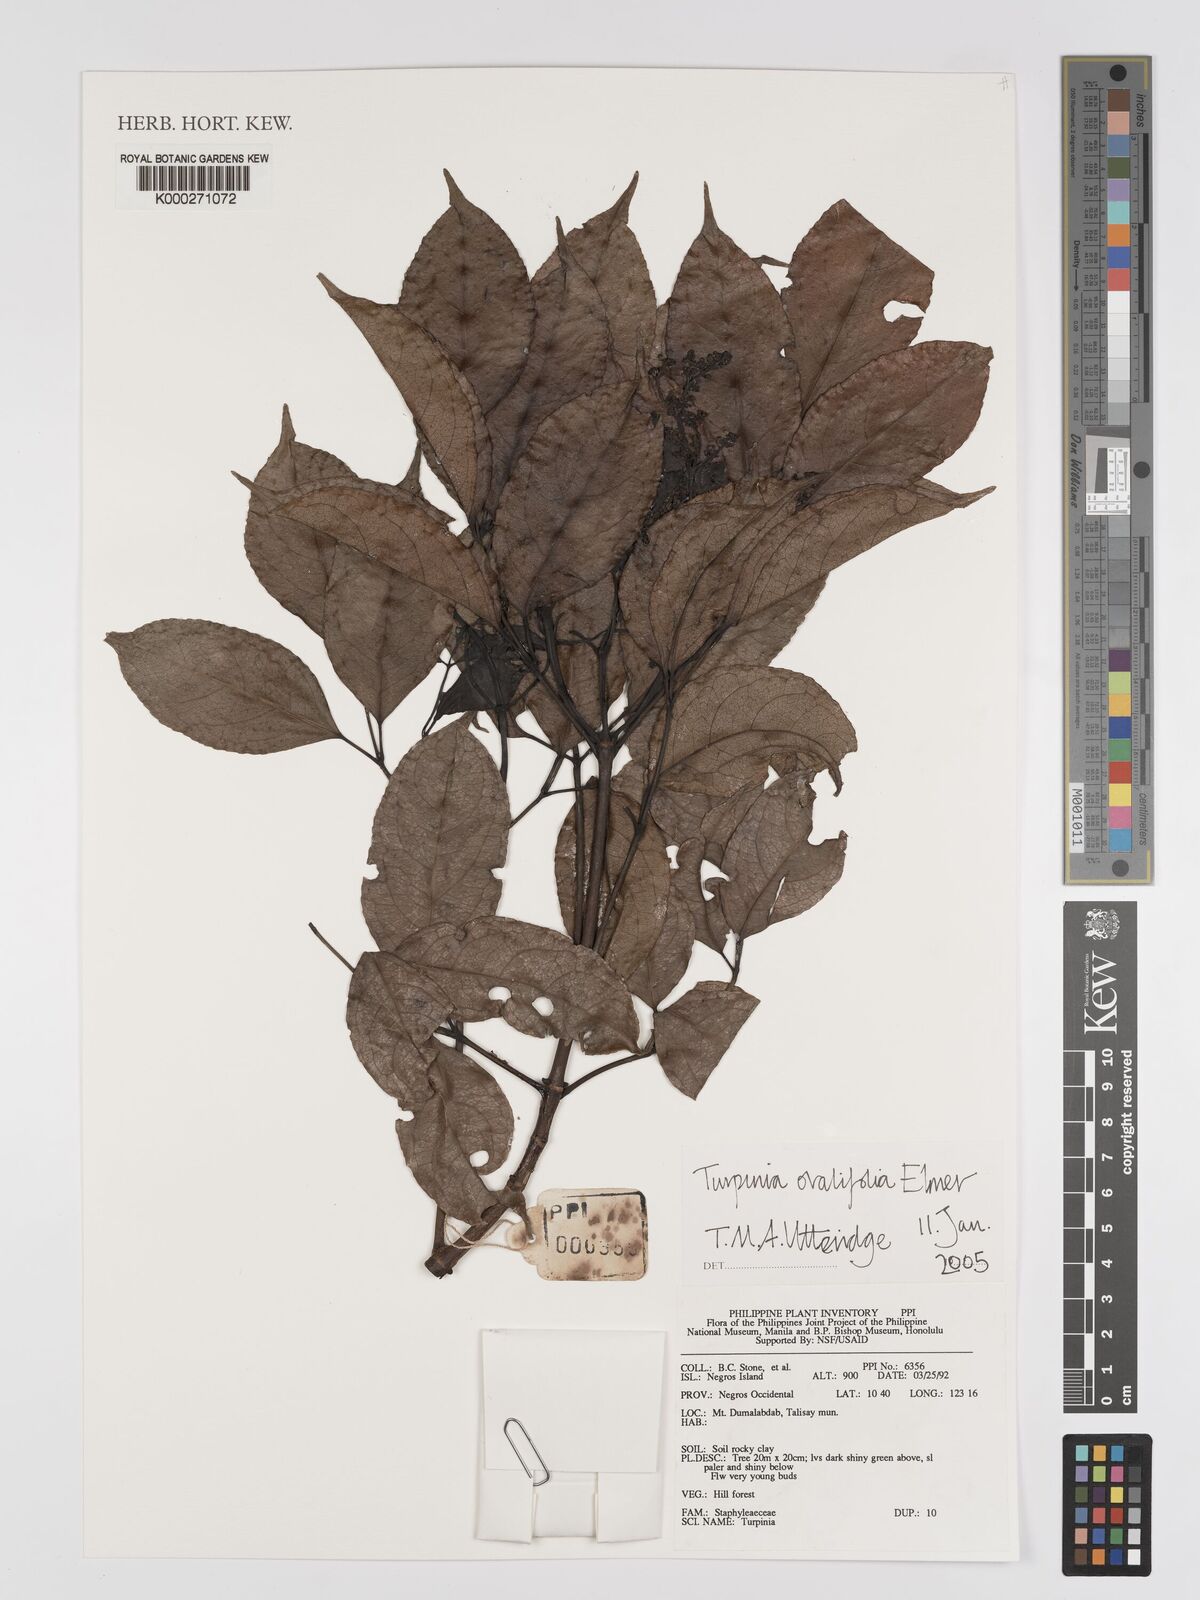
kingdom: Plantae
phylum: Tracheophyta
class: Magnoliopsida
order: Crossosomatales
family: Staphyleaceae
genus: Dalrympelea
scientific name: Dalrympelea trifoliata
